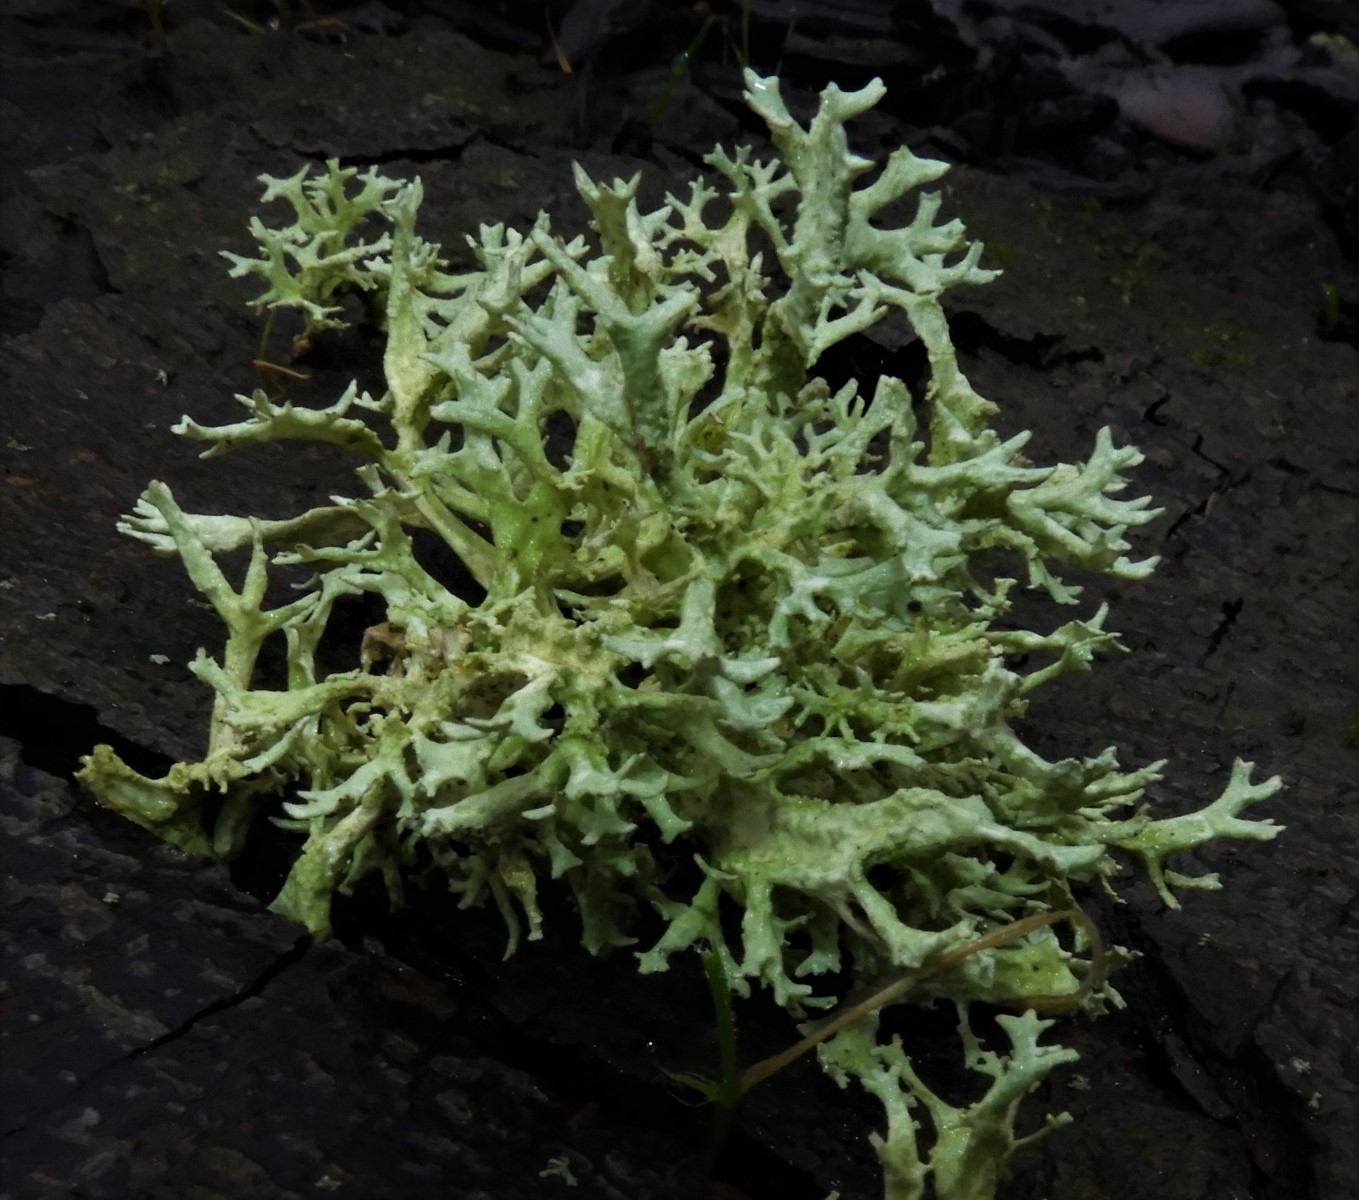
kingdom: Fungi
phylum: Ascomycota
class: Lecanoromycetes
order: Lecanorales
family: Parmeliaceae
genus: Evernia
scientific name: Evernia prunastri
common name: almindelig slåenlav
